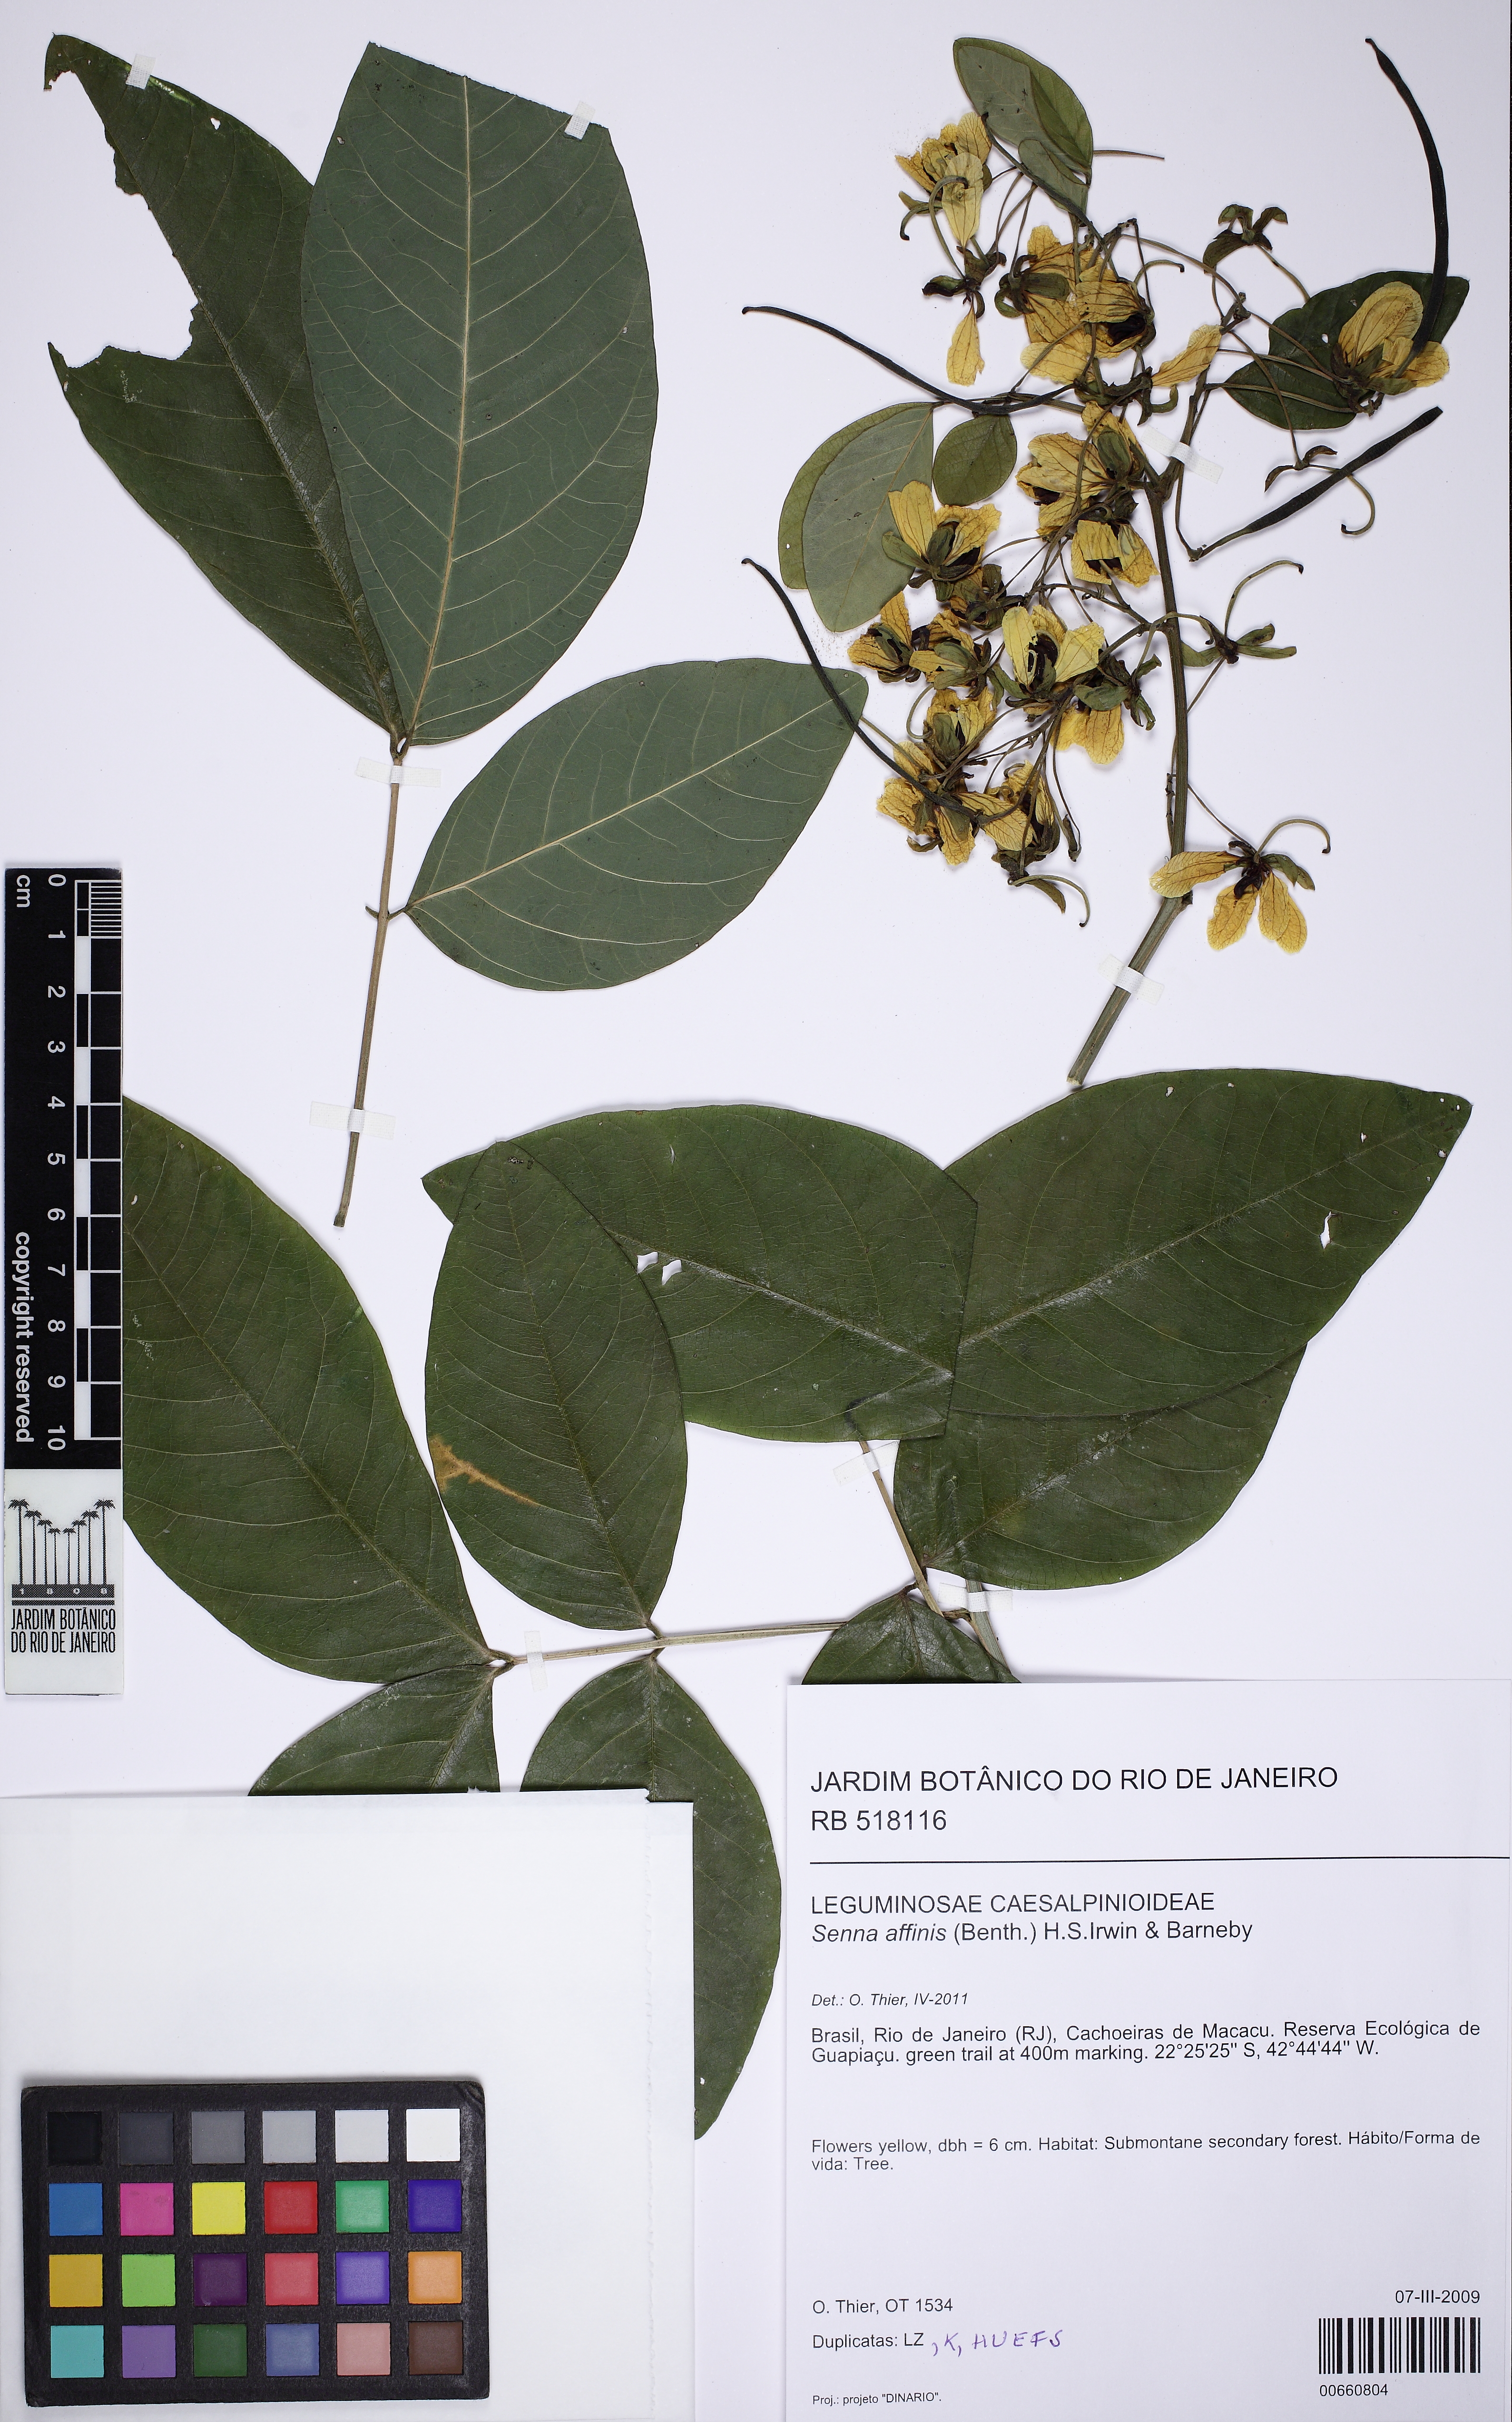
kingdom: Plantae
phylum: Tracheophyta
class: Magnoliopsida
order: Fabales
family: Fabaceae
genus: Senna
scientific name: Senna affinis
